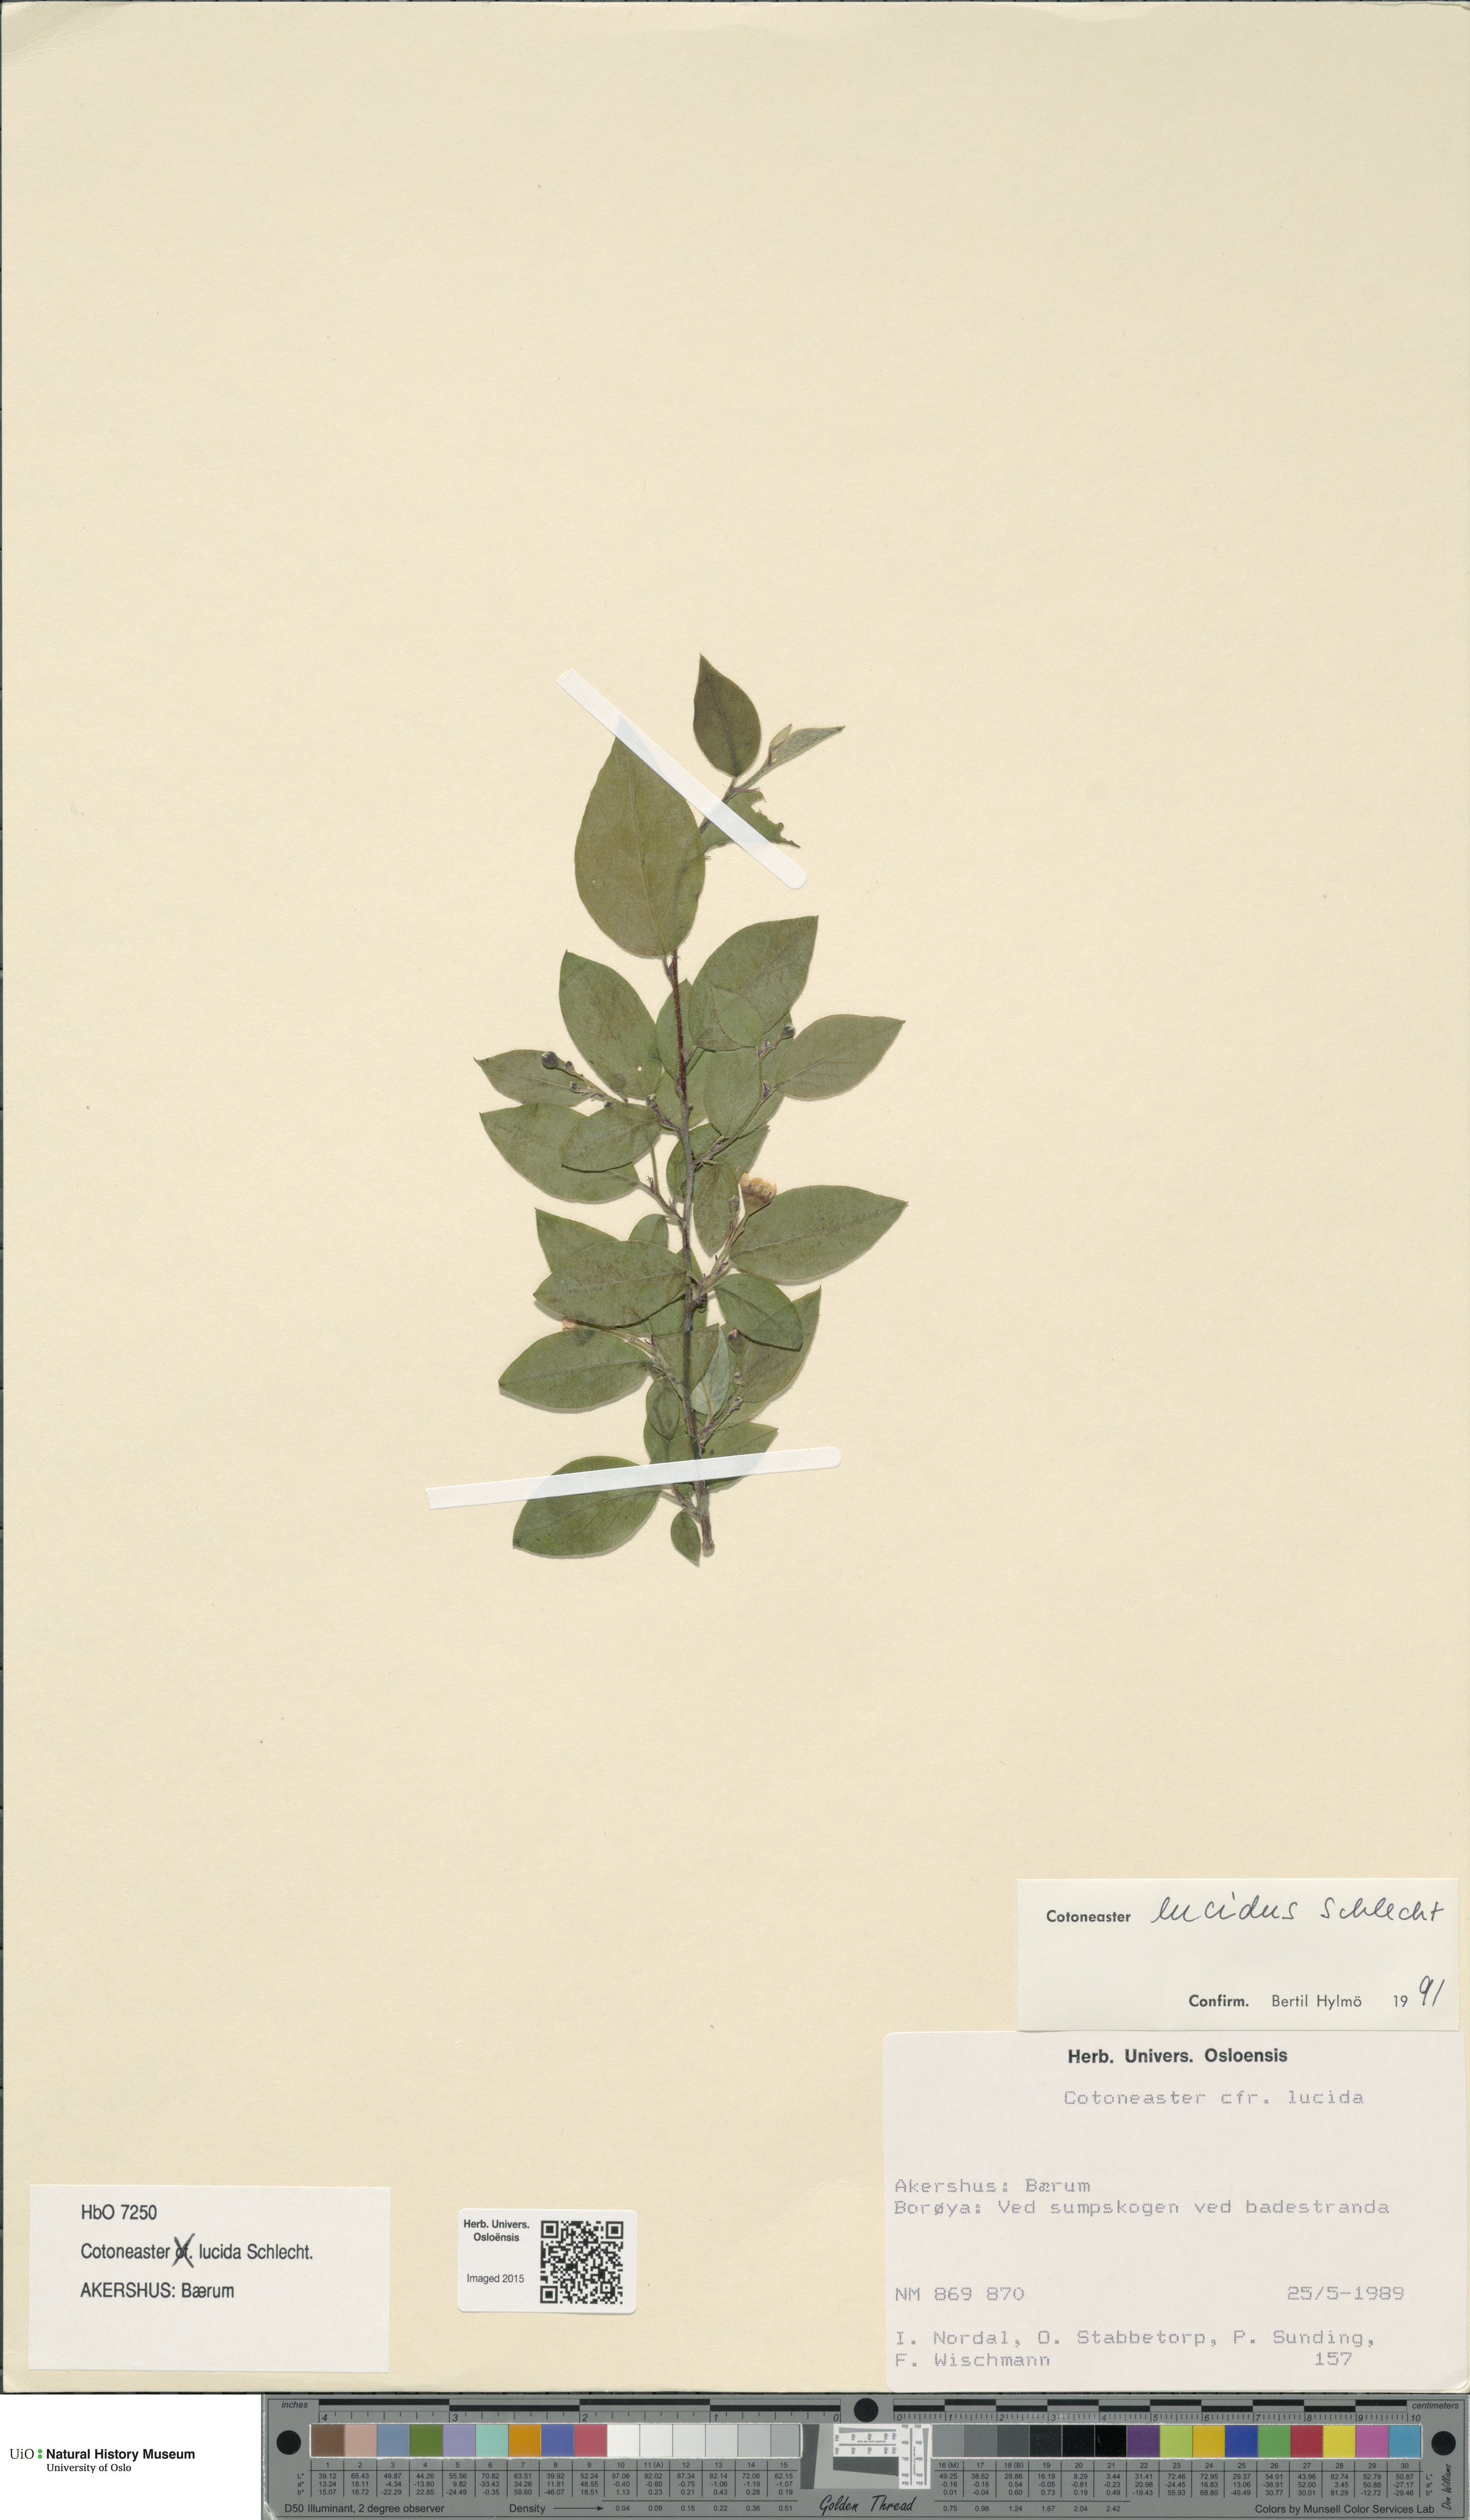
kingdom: Plantae
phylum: Tracheophyta
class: Magnoliopsida
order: Rosales
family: Rosaceae
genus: Cotoneaster
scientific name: Cotoneaster acutifolius
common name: Peking cotoneaster
